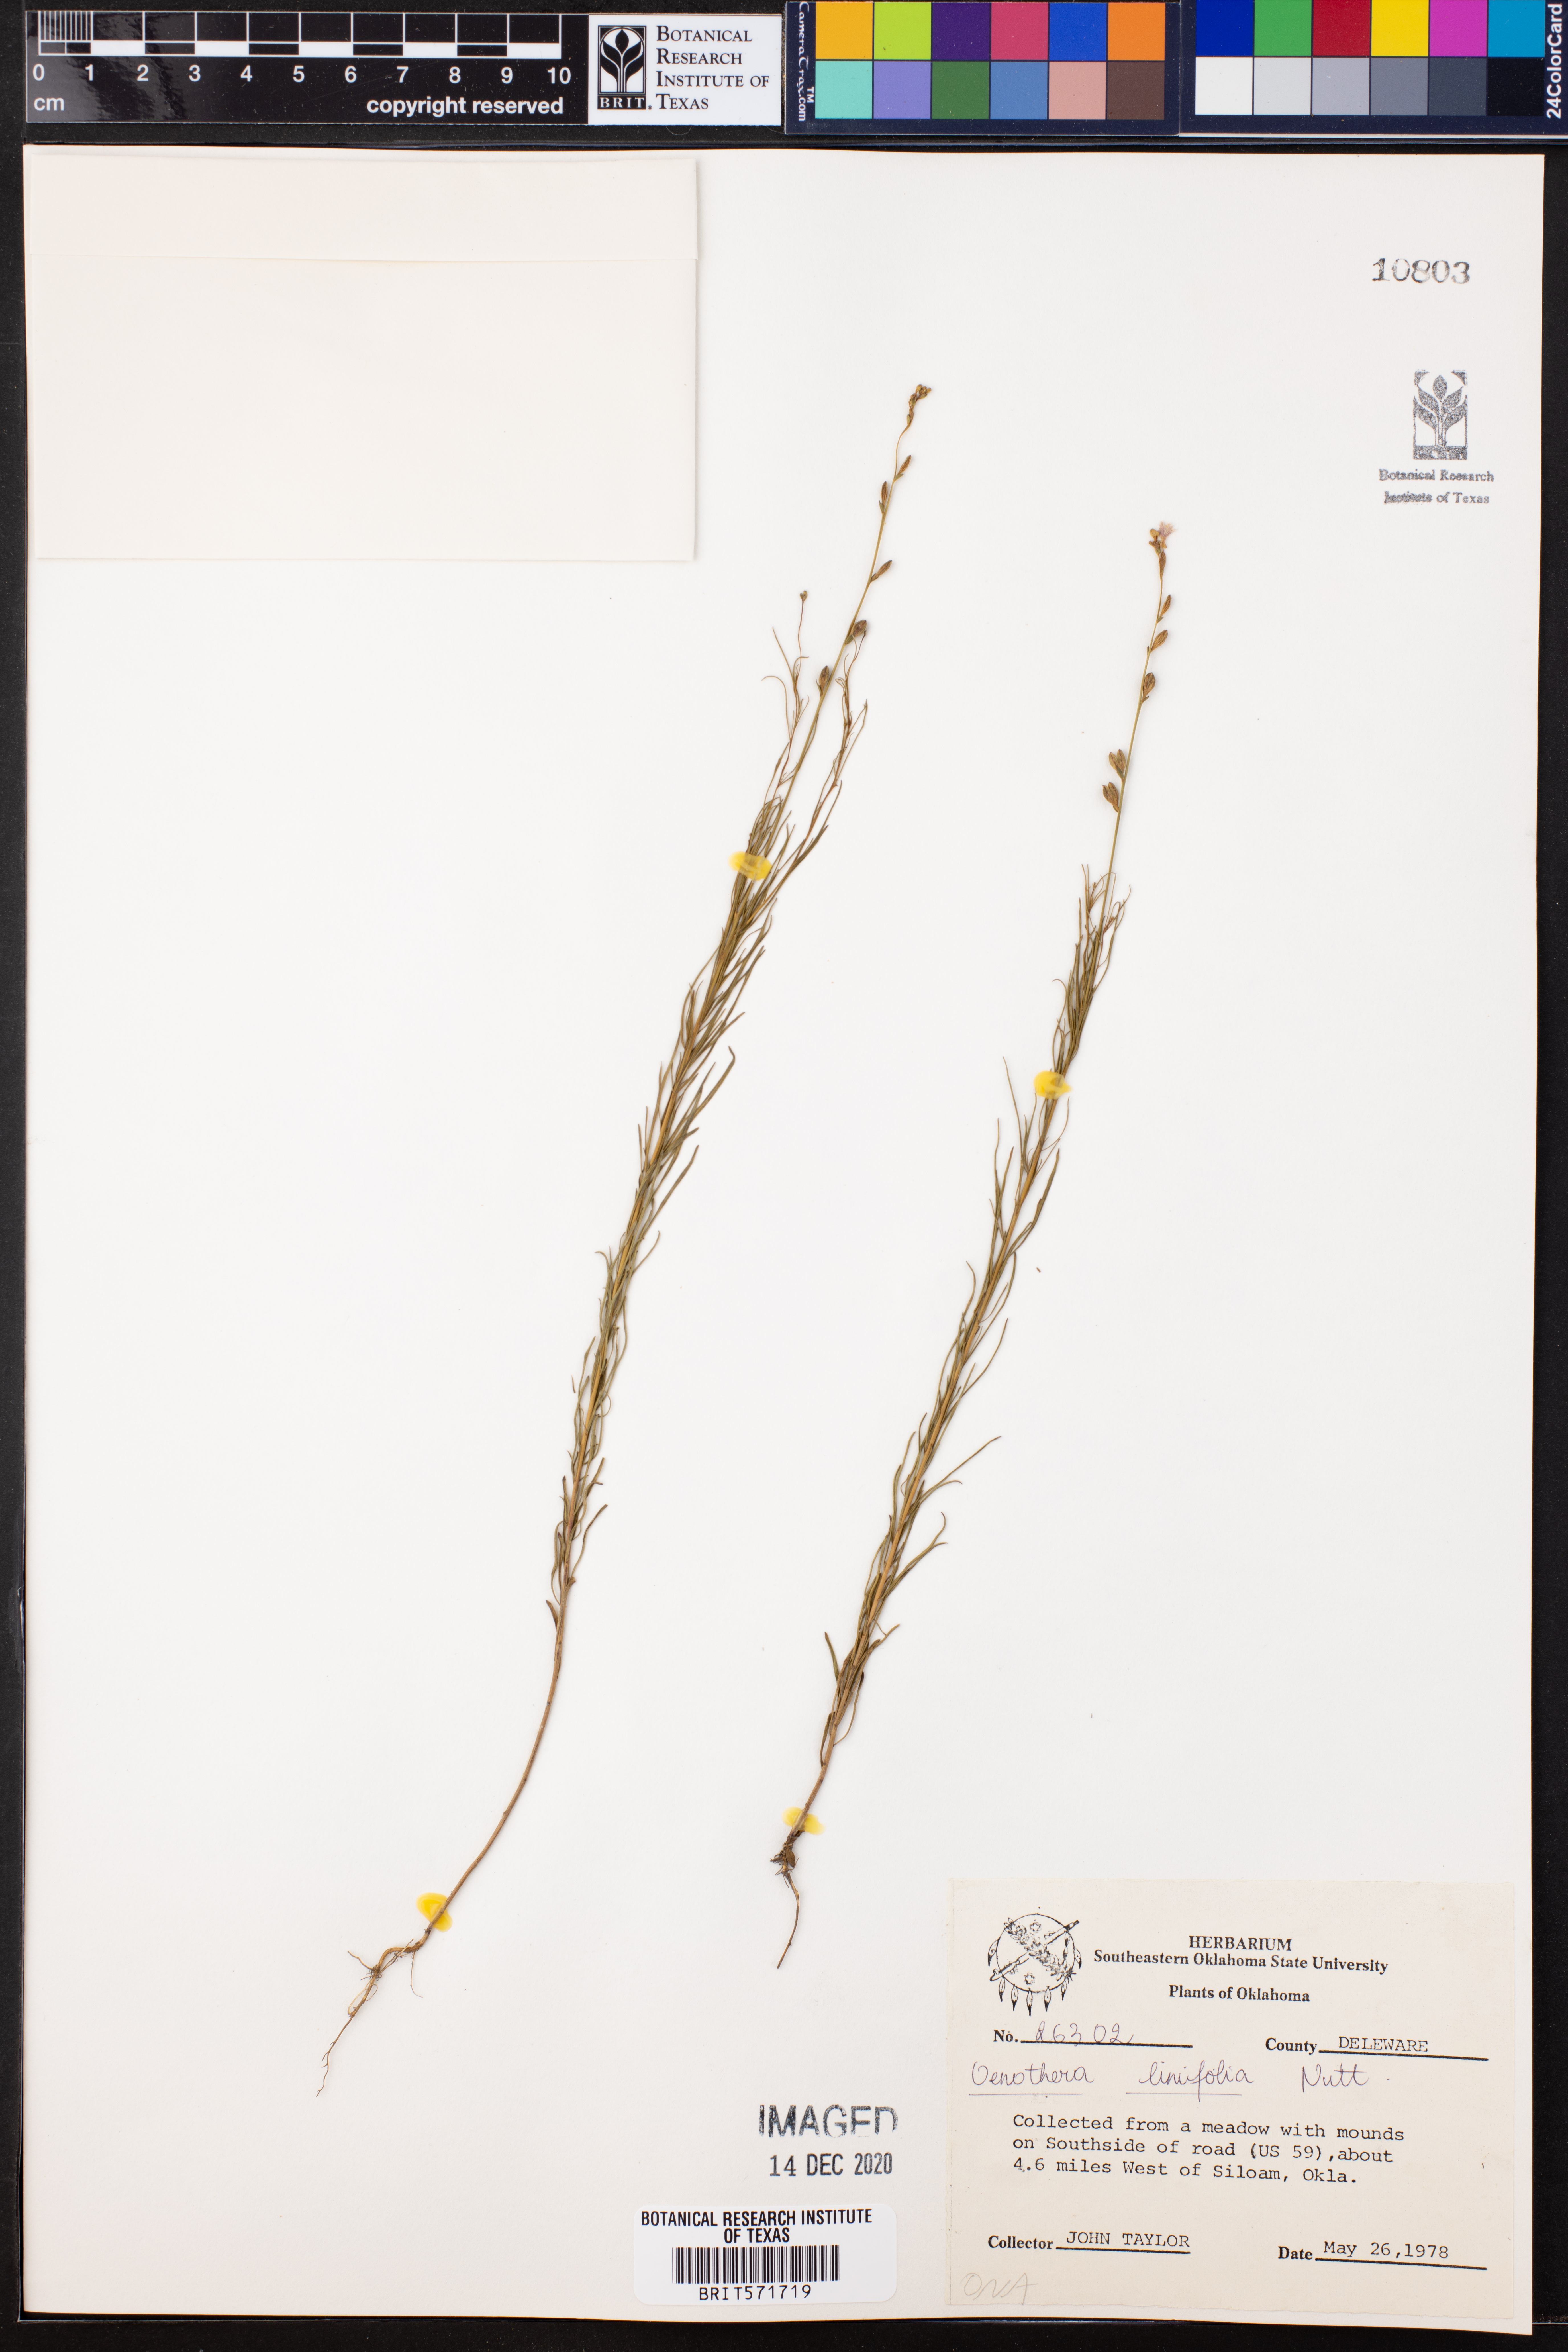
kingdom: Plantae
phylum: Tracheophyta
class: Magnoliopsida
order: Myrtales
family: Onagraceae
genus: Oenothera
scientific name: Oenothera linifolia
